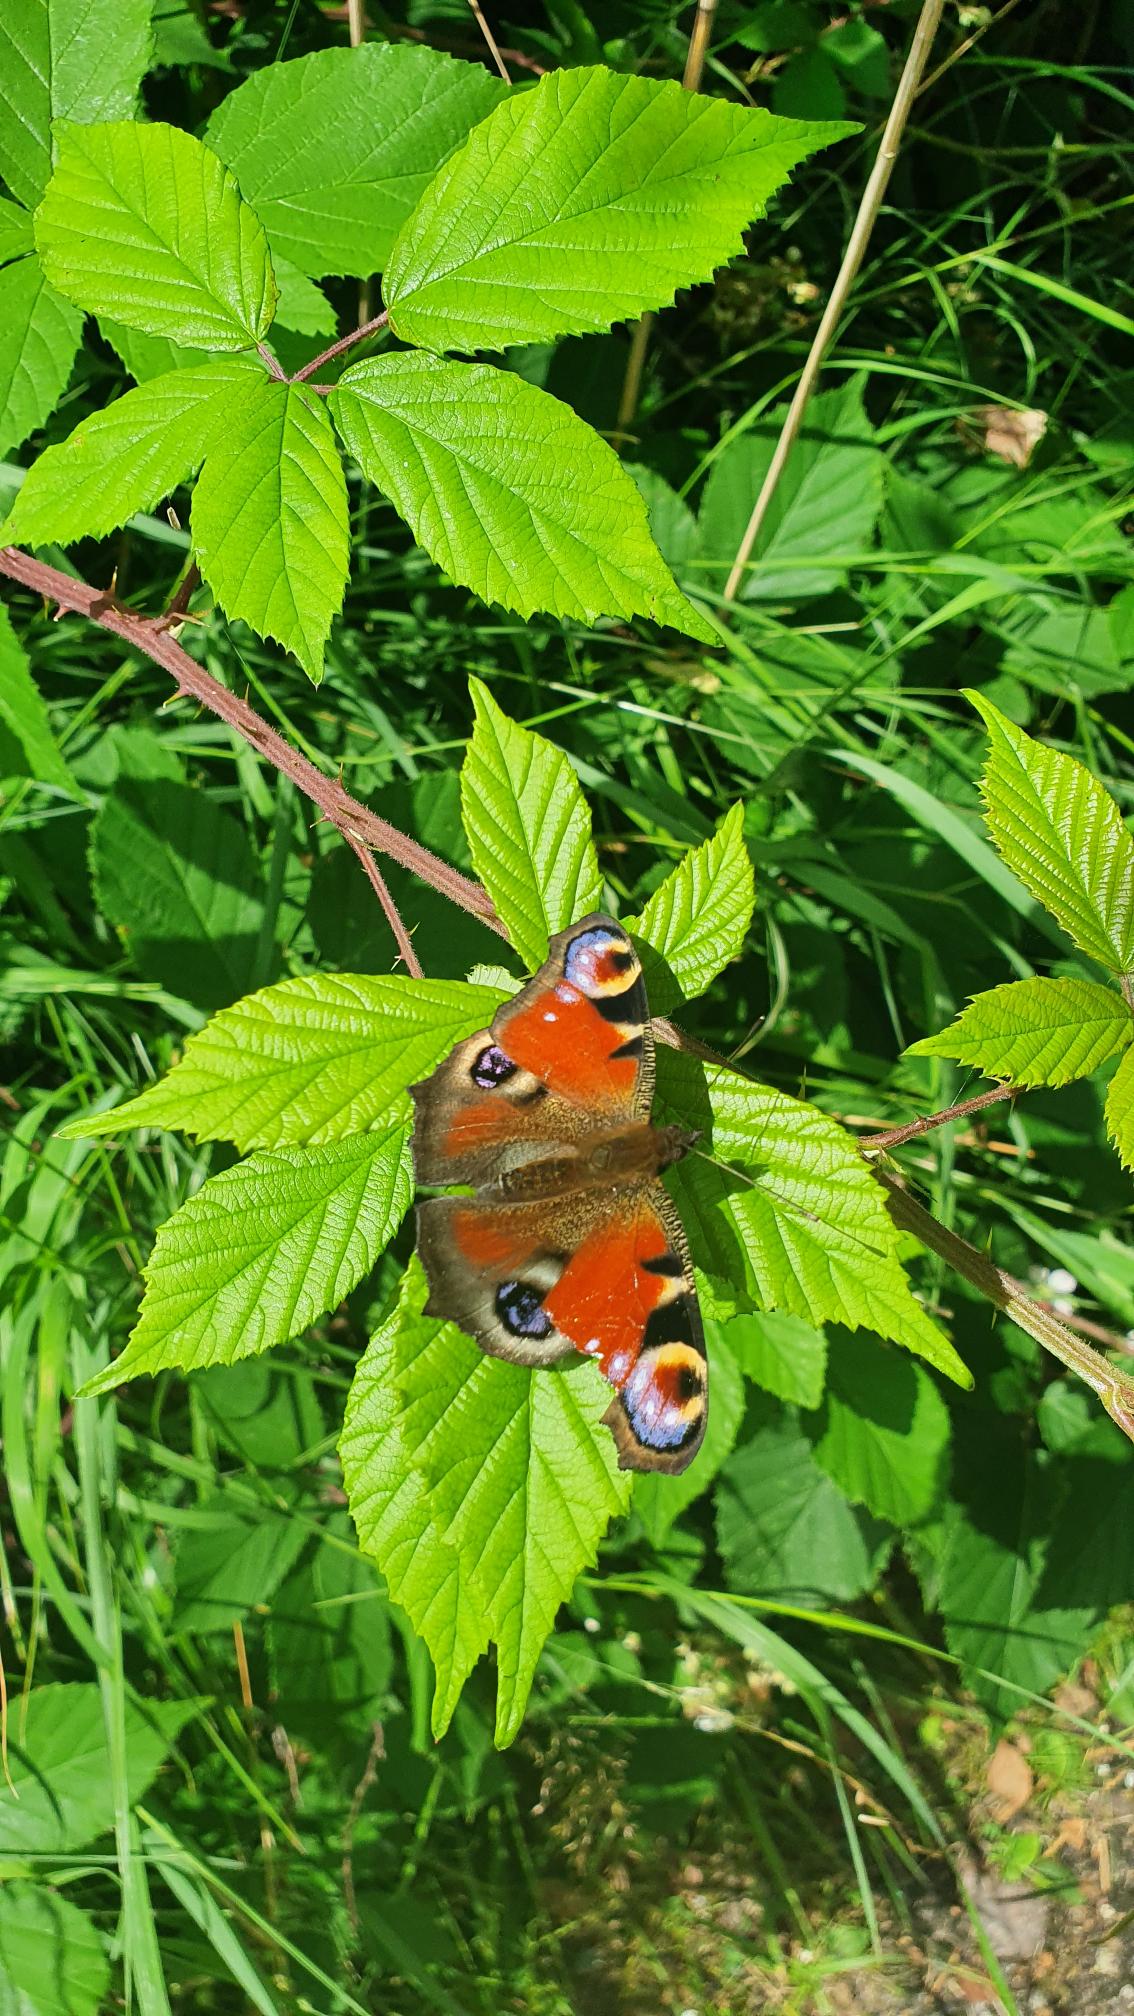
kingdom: Animalia
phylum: Arthropoda
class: Insecta
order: Lepidoptera
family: Nymphalidae
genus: Aglais
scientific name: Aglais io
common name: Dagpåfugleøje
